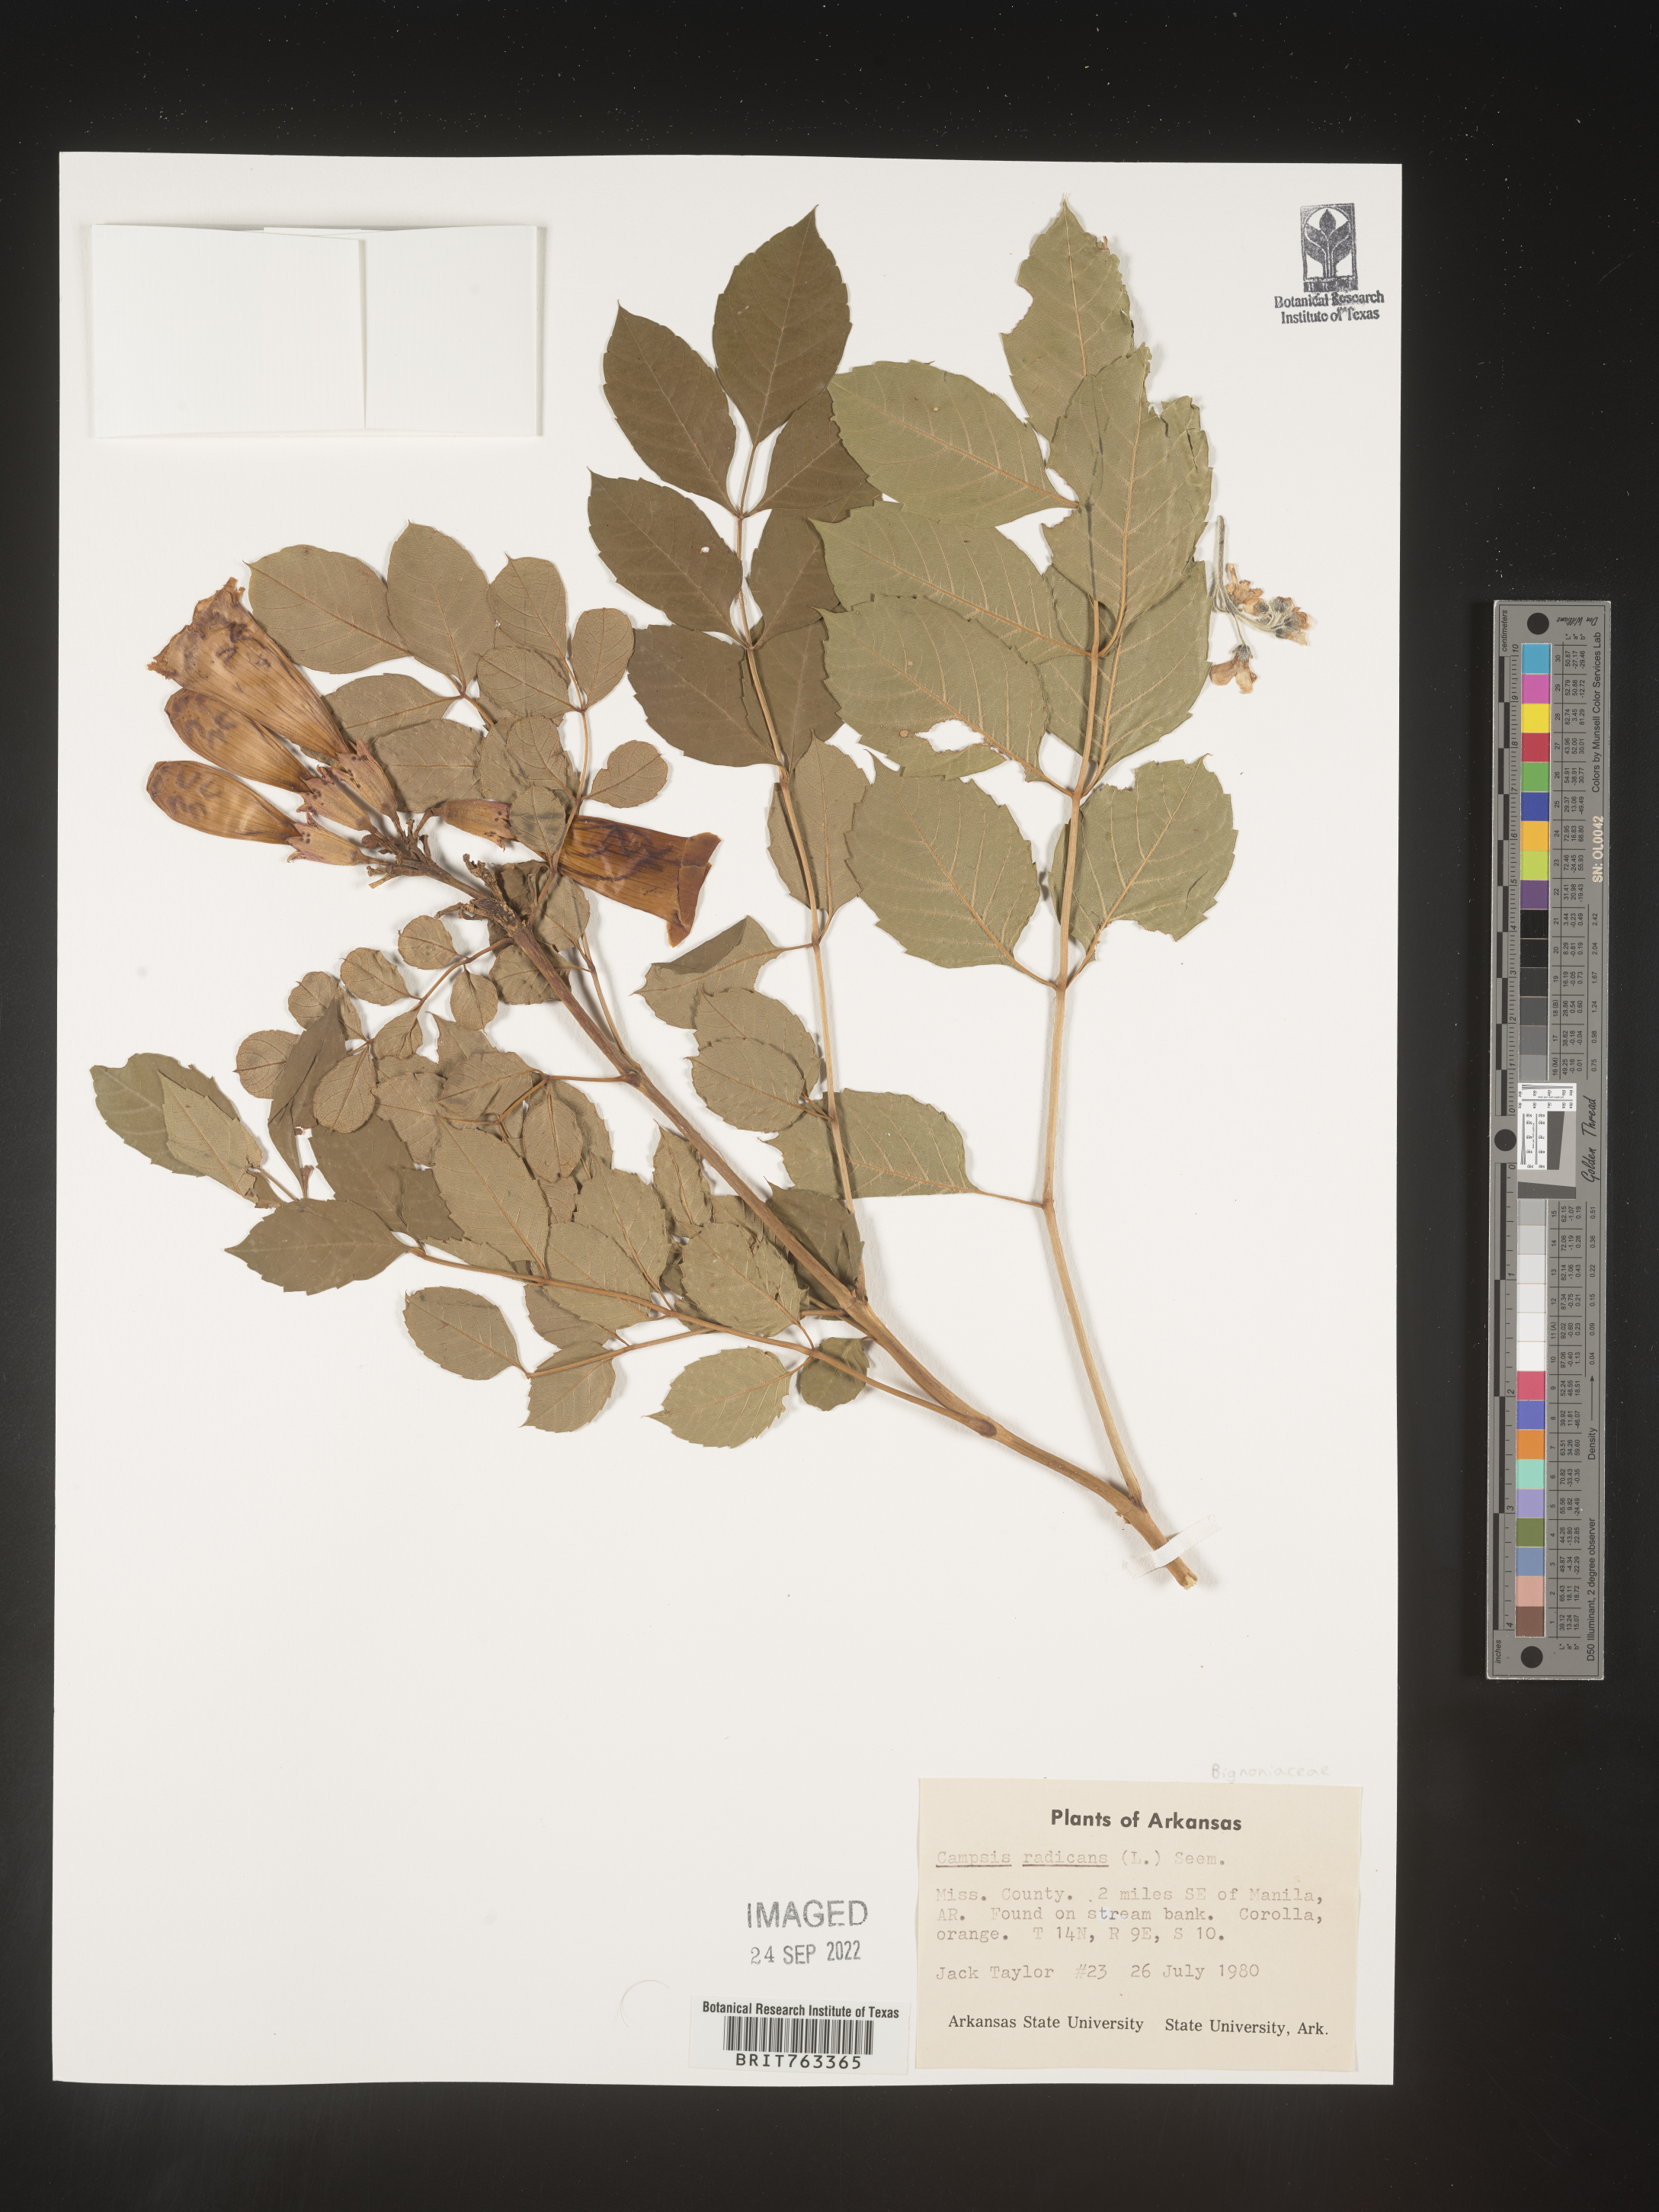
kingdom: Plantae
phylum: Tracheophyta
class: Magnoliopsida
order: Lamiales
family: Bignoniaceae
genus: Campsis
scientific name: Campsis radicans
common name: Trumpet-creeper
